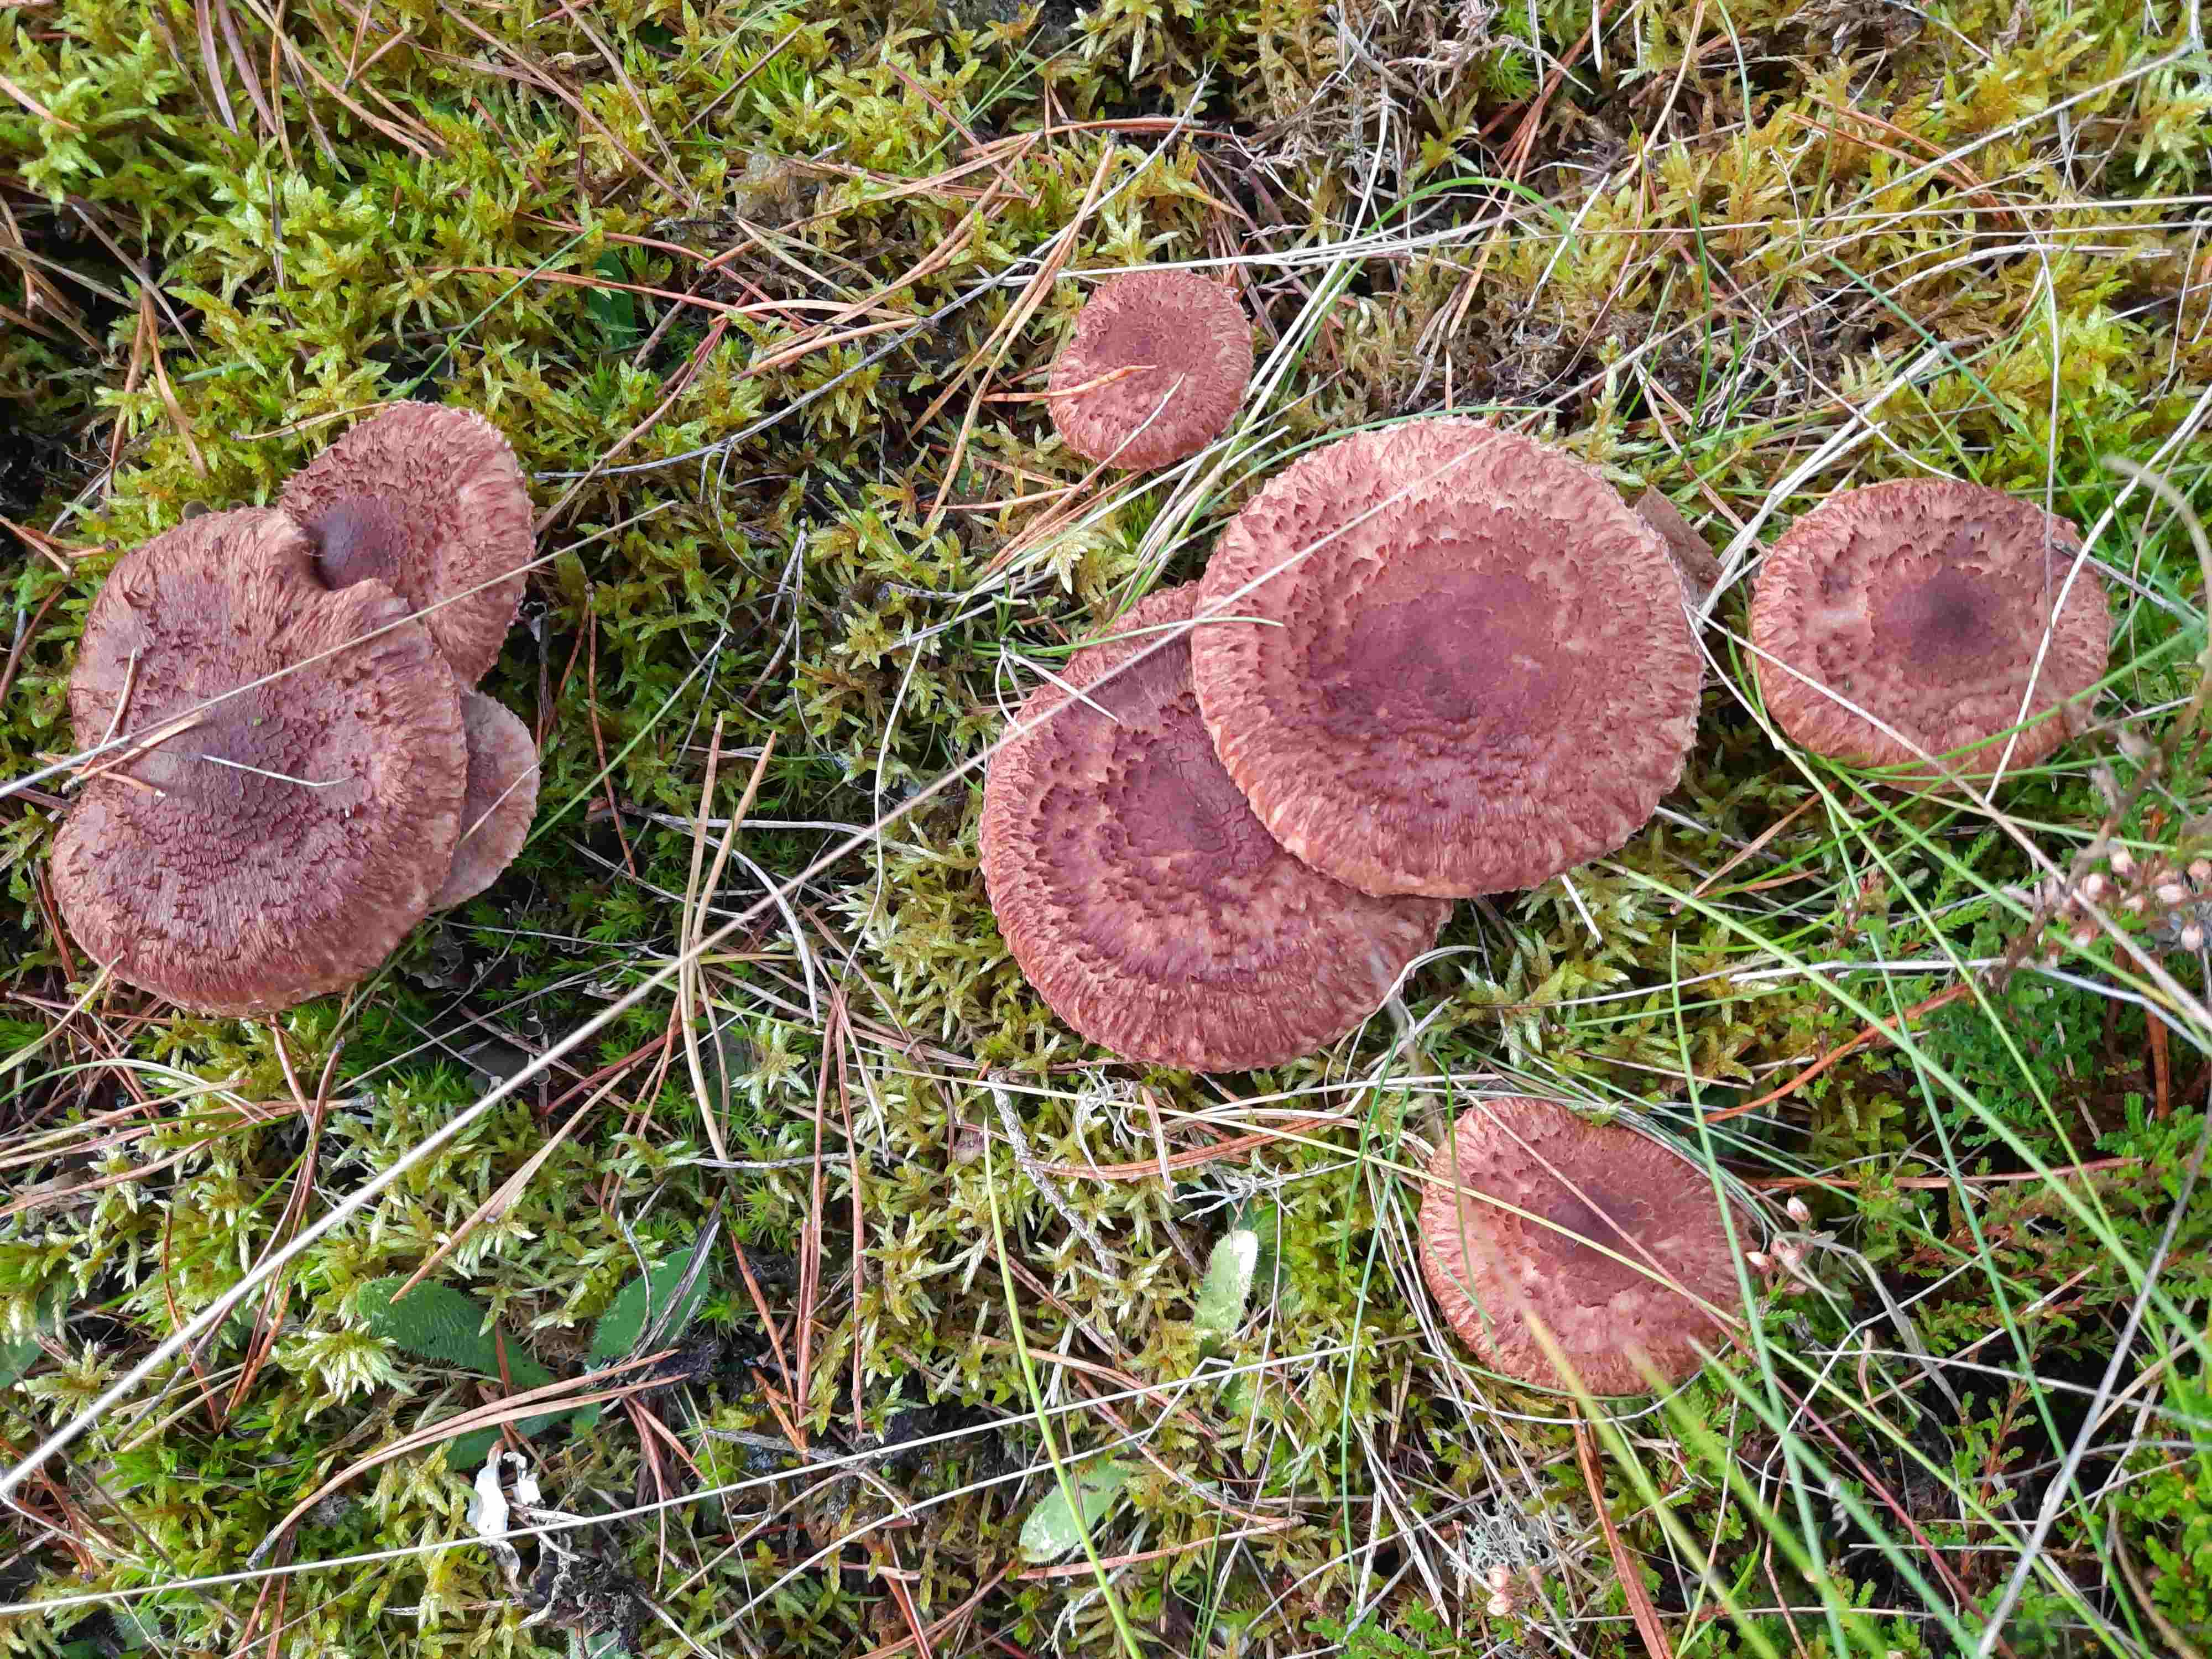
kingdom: Fungi
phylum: Basidiomycota
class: Agaricomycetes
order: Agaricales
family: Tricholomataceae
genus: Tricholoma
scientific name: Tricholoma vaccinum
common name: ko-ridderhat
